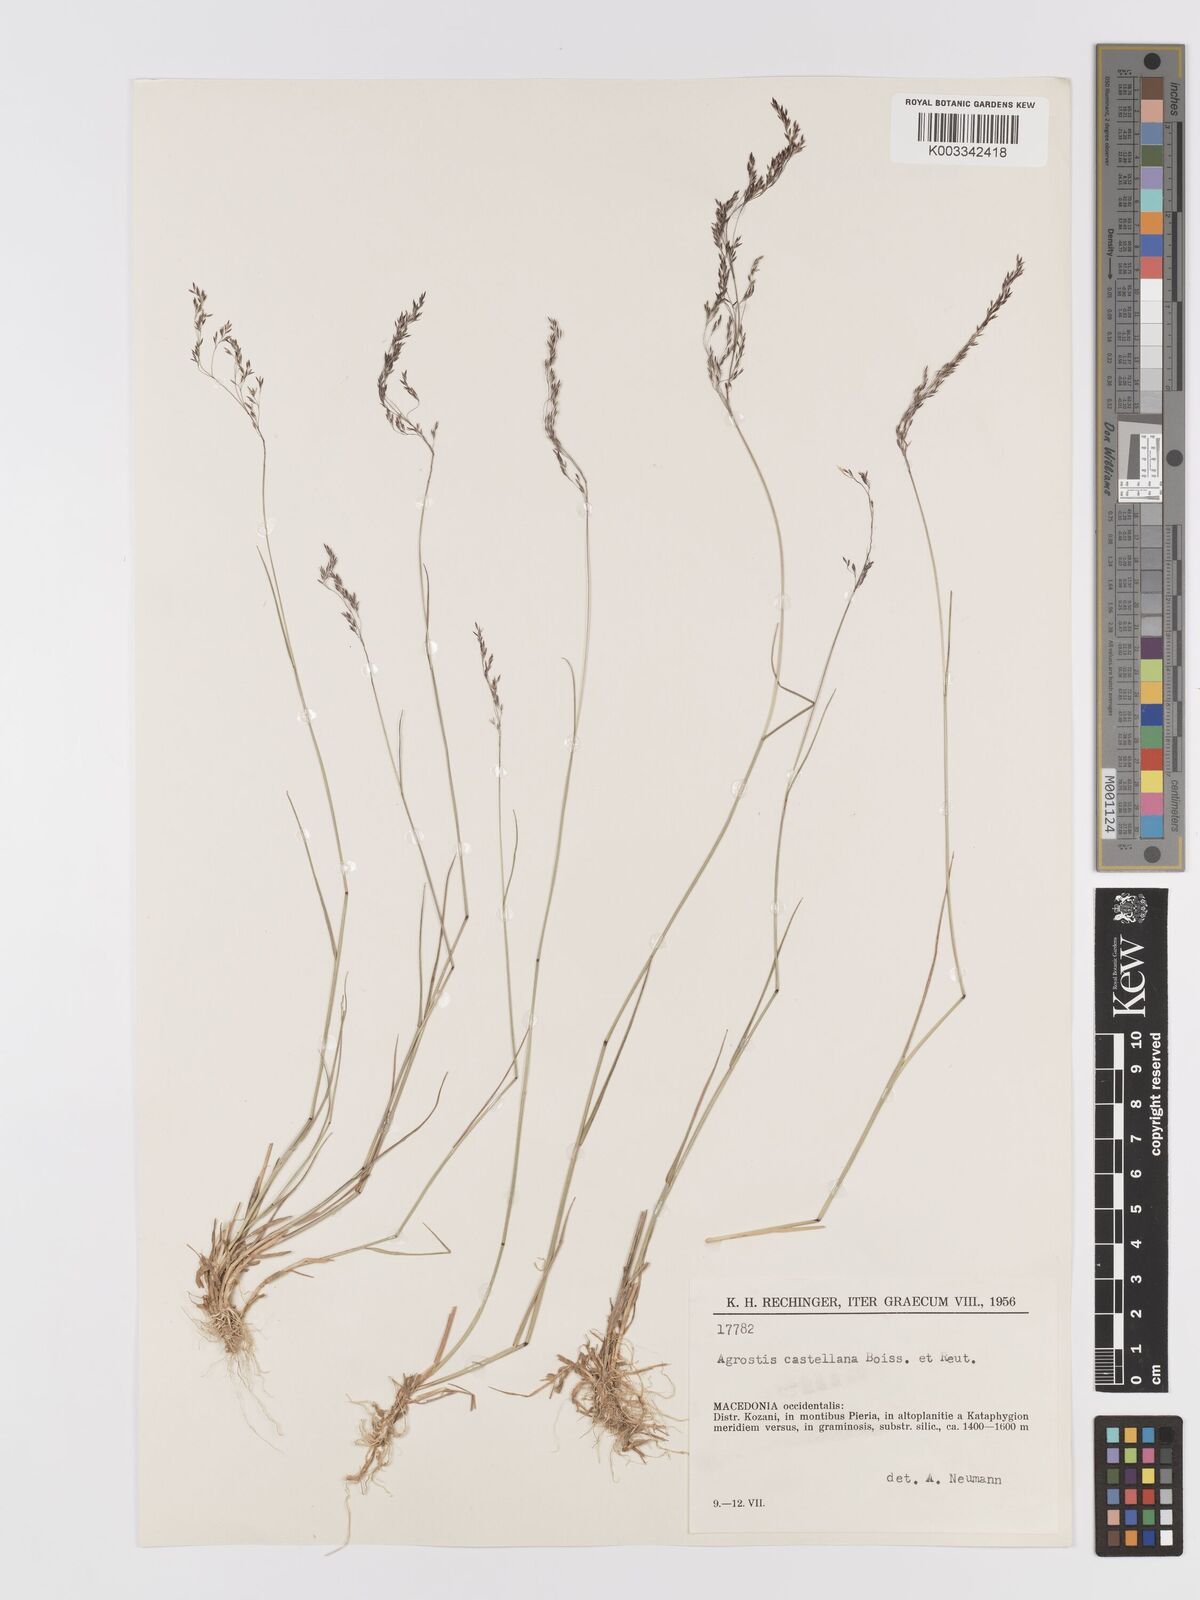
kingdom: Plantae
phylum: Tracheophyta
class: Liliopsida
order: Poales
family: Poaceae
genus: Agrostis
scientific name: Agrostis castellana
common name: Highland bent
